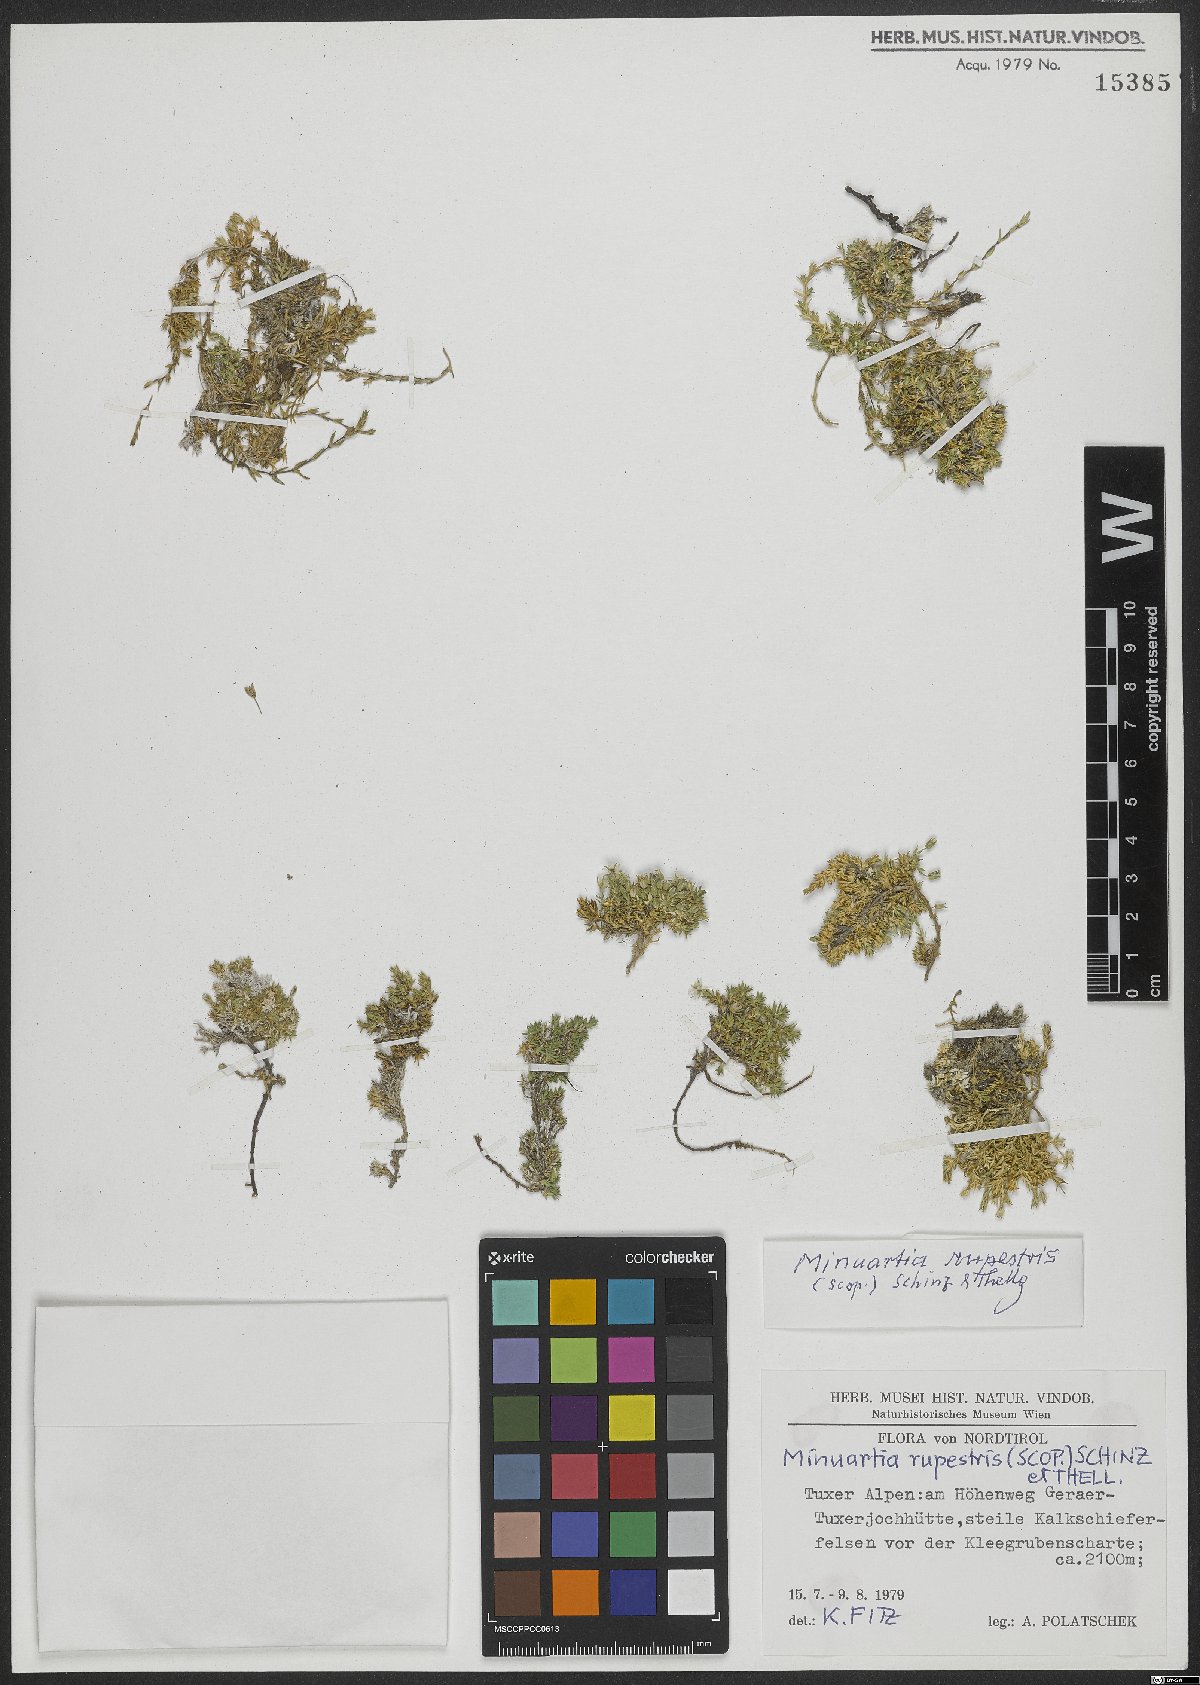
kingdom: Plantae
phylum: Tracheophyta
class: Magnoliopsida
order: Caryophyllales
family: Caryophyllaceae
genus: Facchinia
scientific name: Facchinia rupestris
